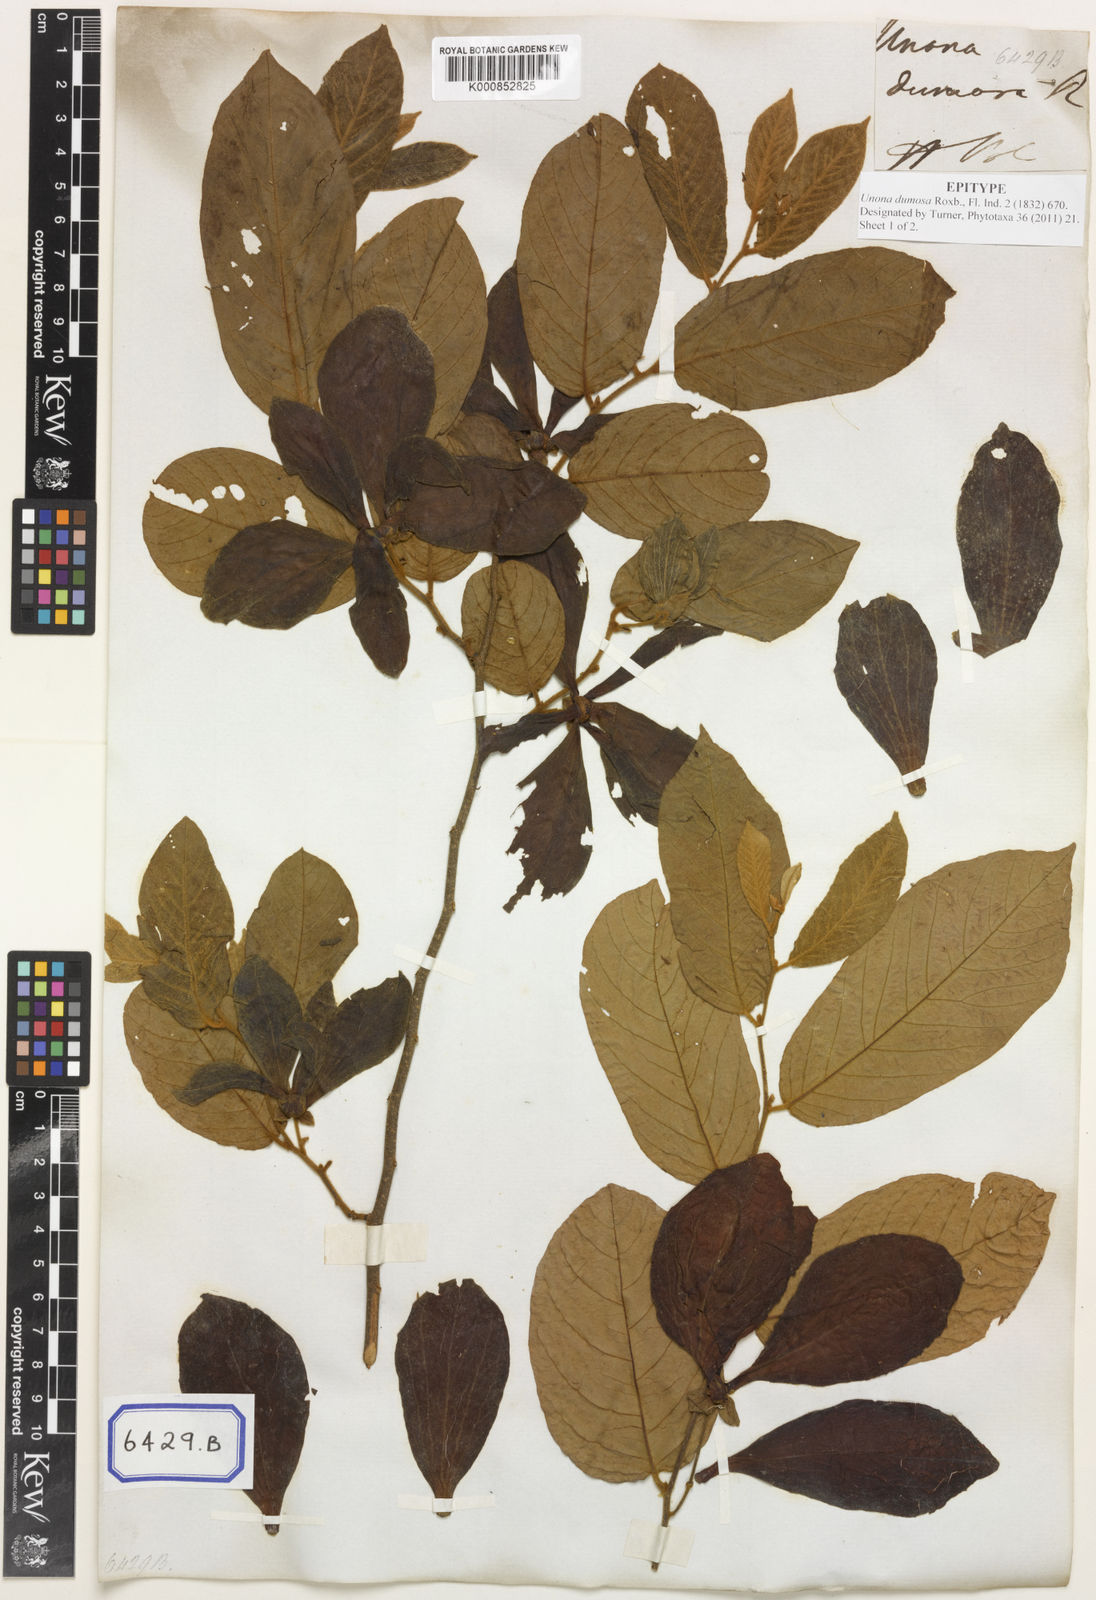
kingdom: Plantae
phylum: Tracheophyta
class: Magnoliopsida
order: Magnoliales
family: Annonaceae
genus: Desmos
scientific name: Desmos dumosus
